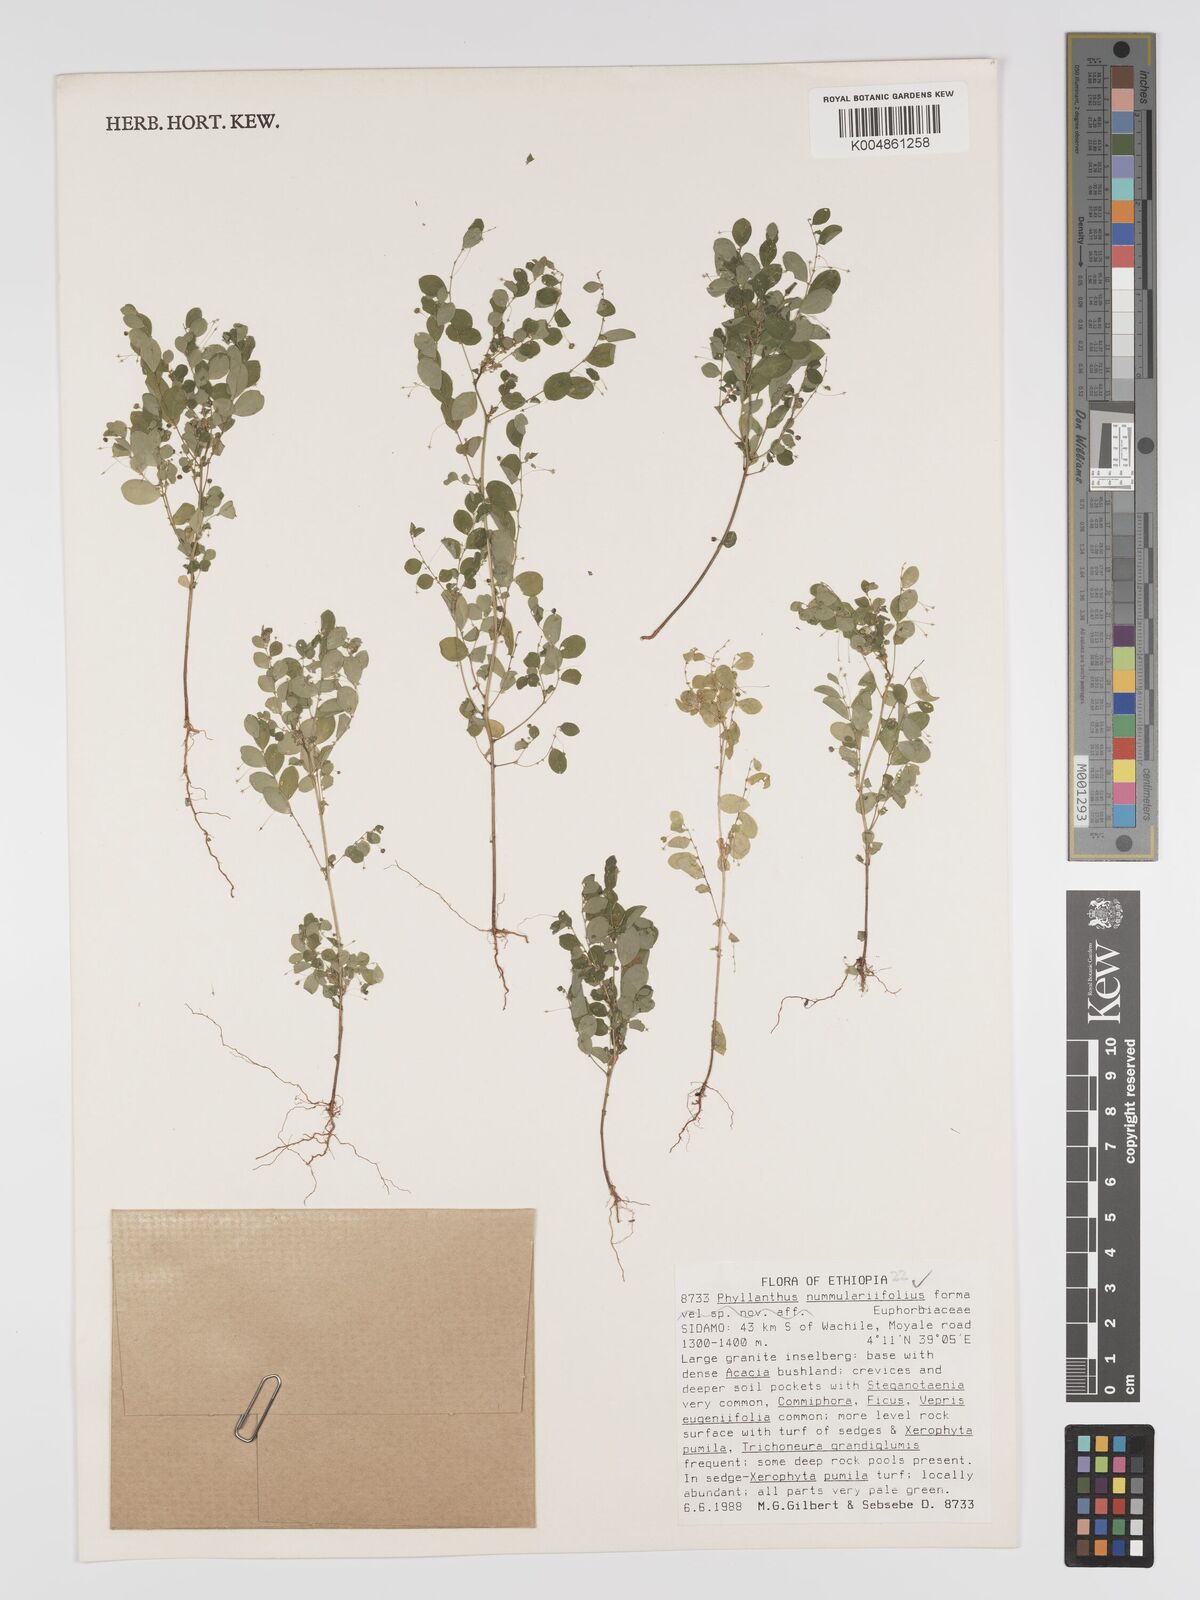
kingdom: Plantae
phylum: Tracheophyta
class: Magnoliopsida
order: Malpighiales
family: Phyllanthaceae
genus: Phyllanthus
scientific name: Phyllanthus nummulariifolius
